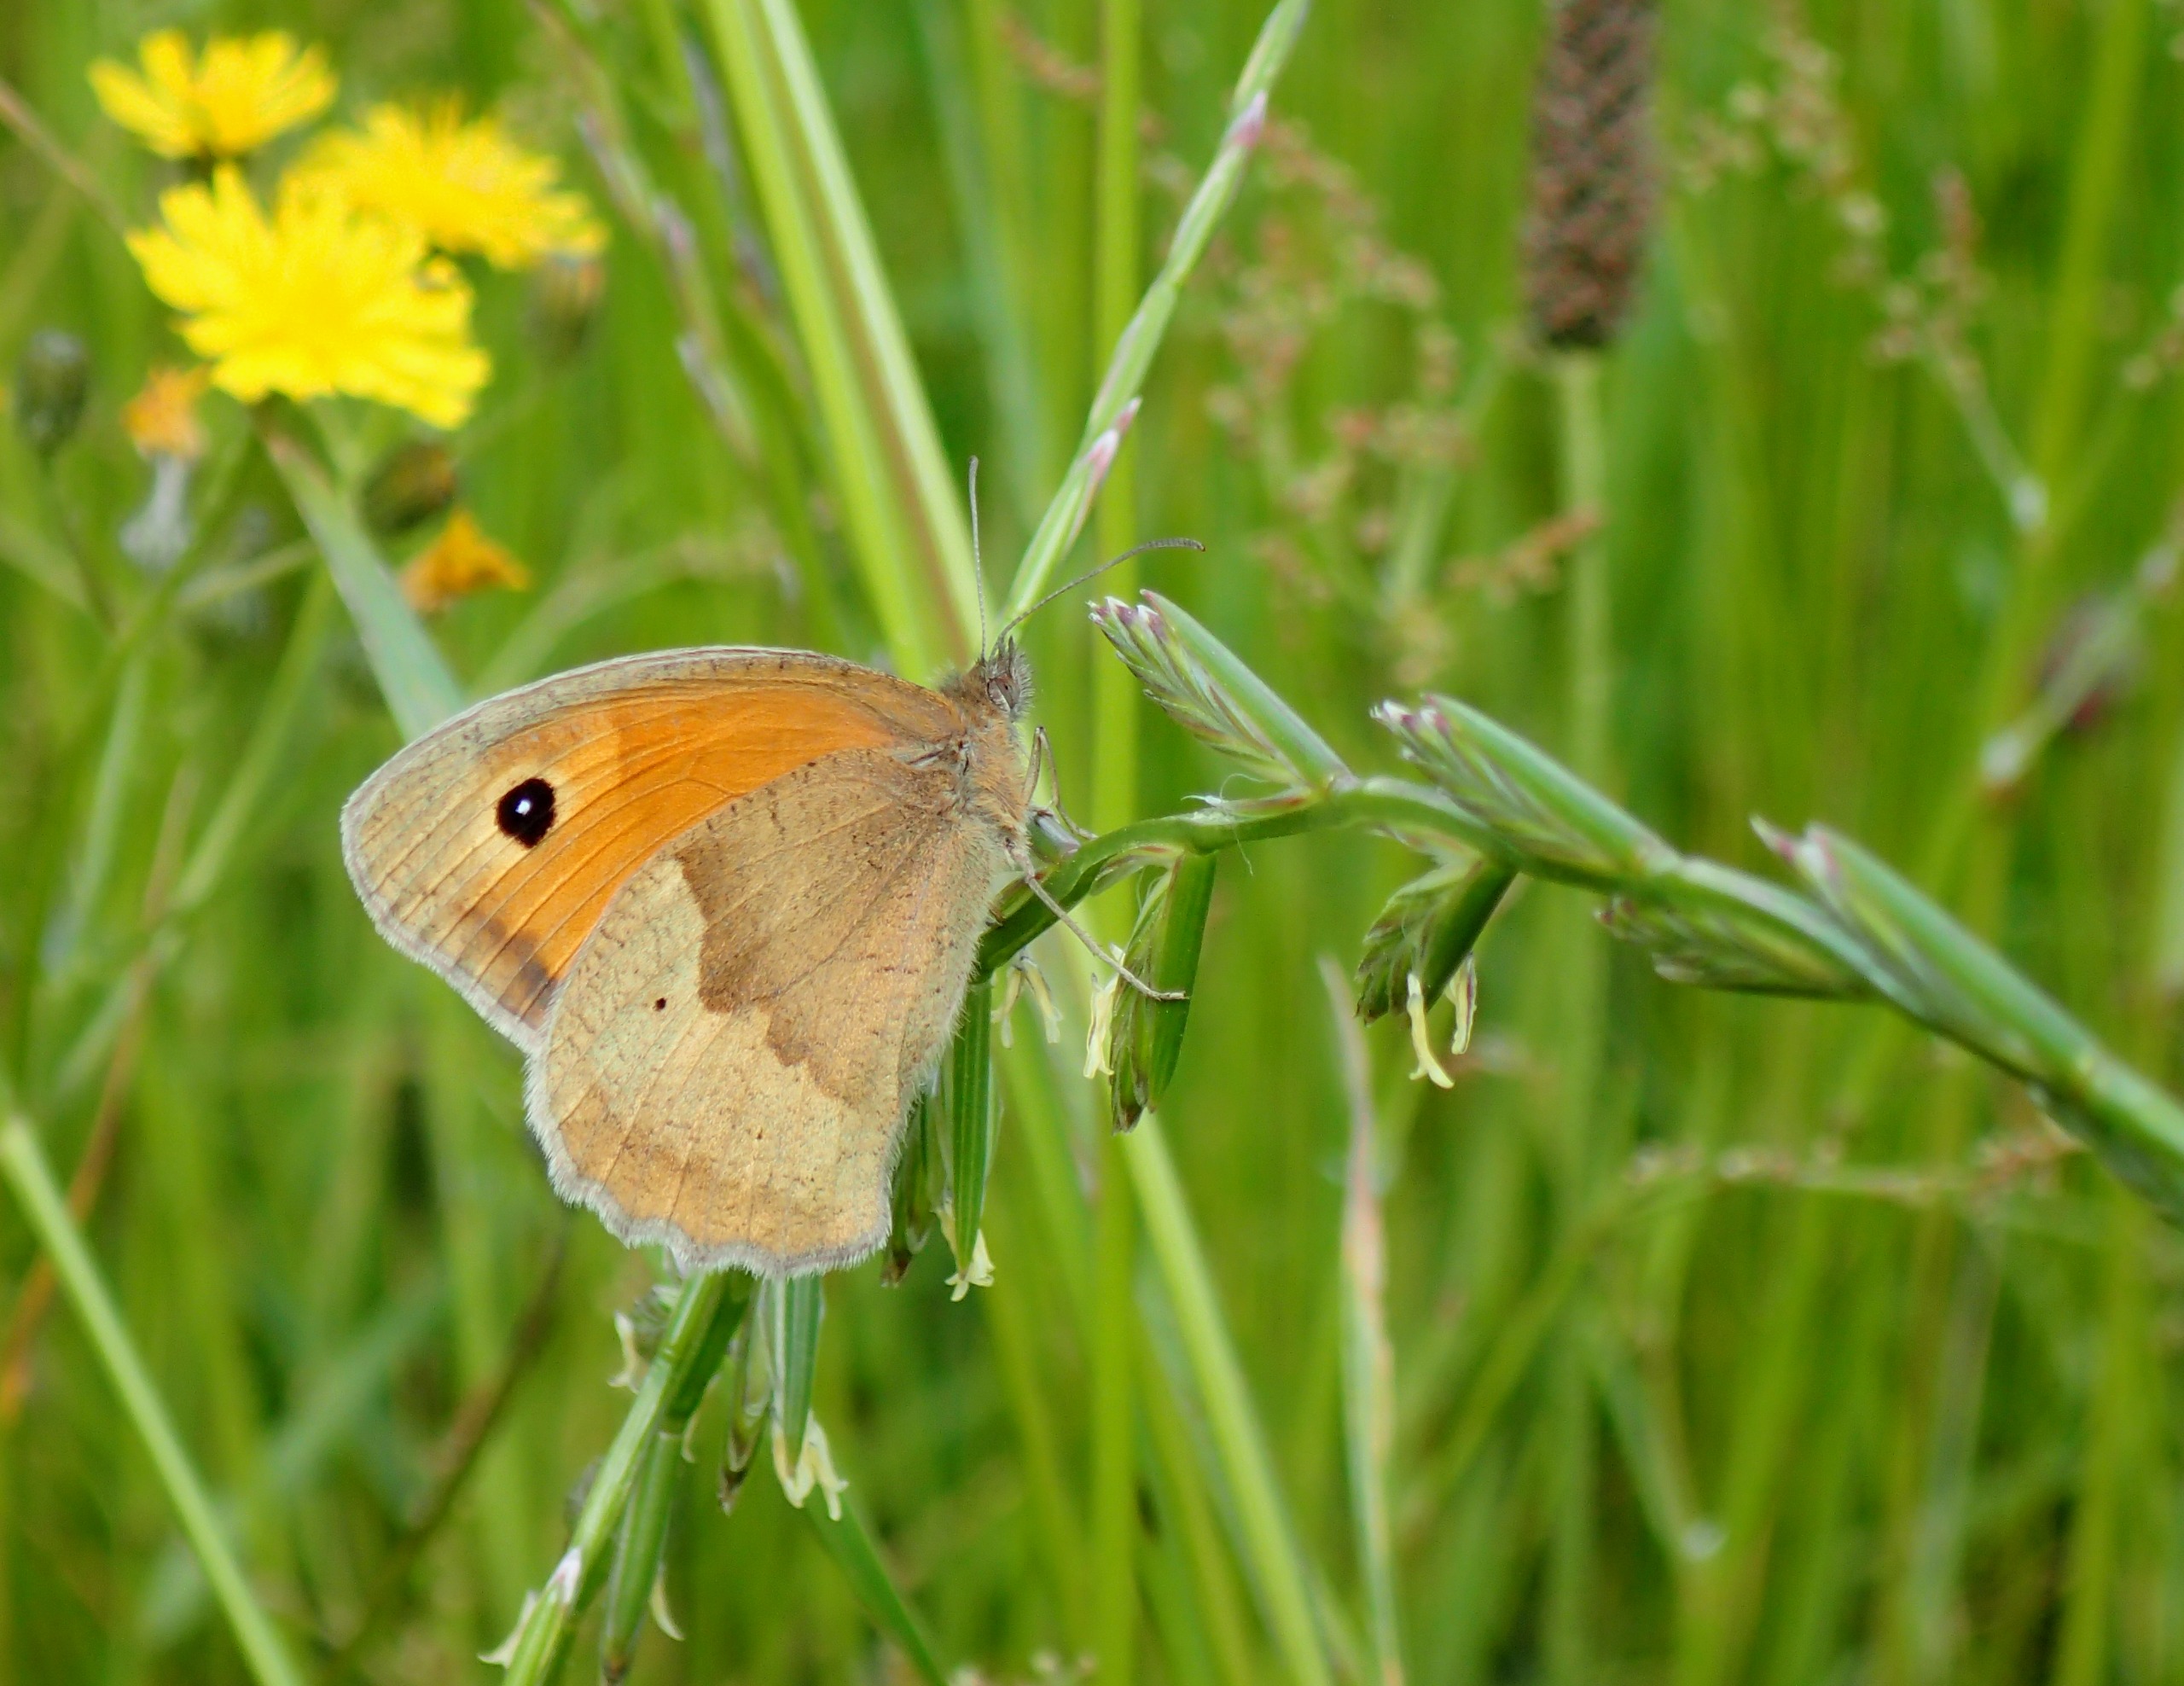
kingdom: Animalia
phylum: Arthropoda
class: Insecta
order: Lepidoptera
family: Nymphalidae
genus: Maniola
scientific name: Maniola jurtina
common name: Græsrandøje
